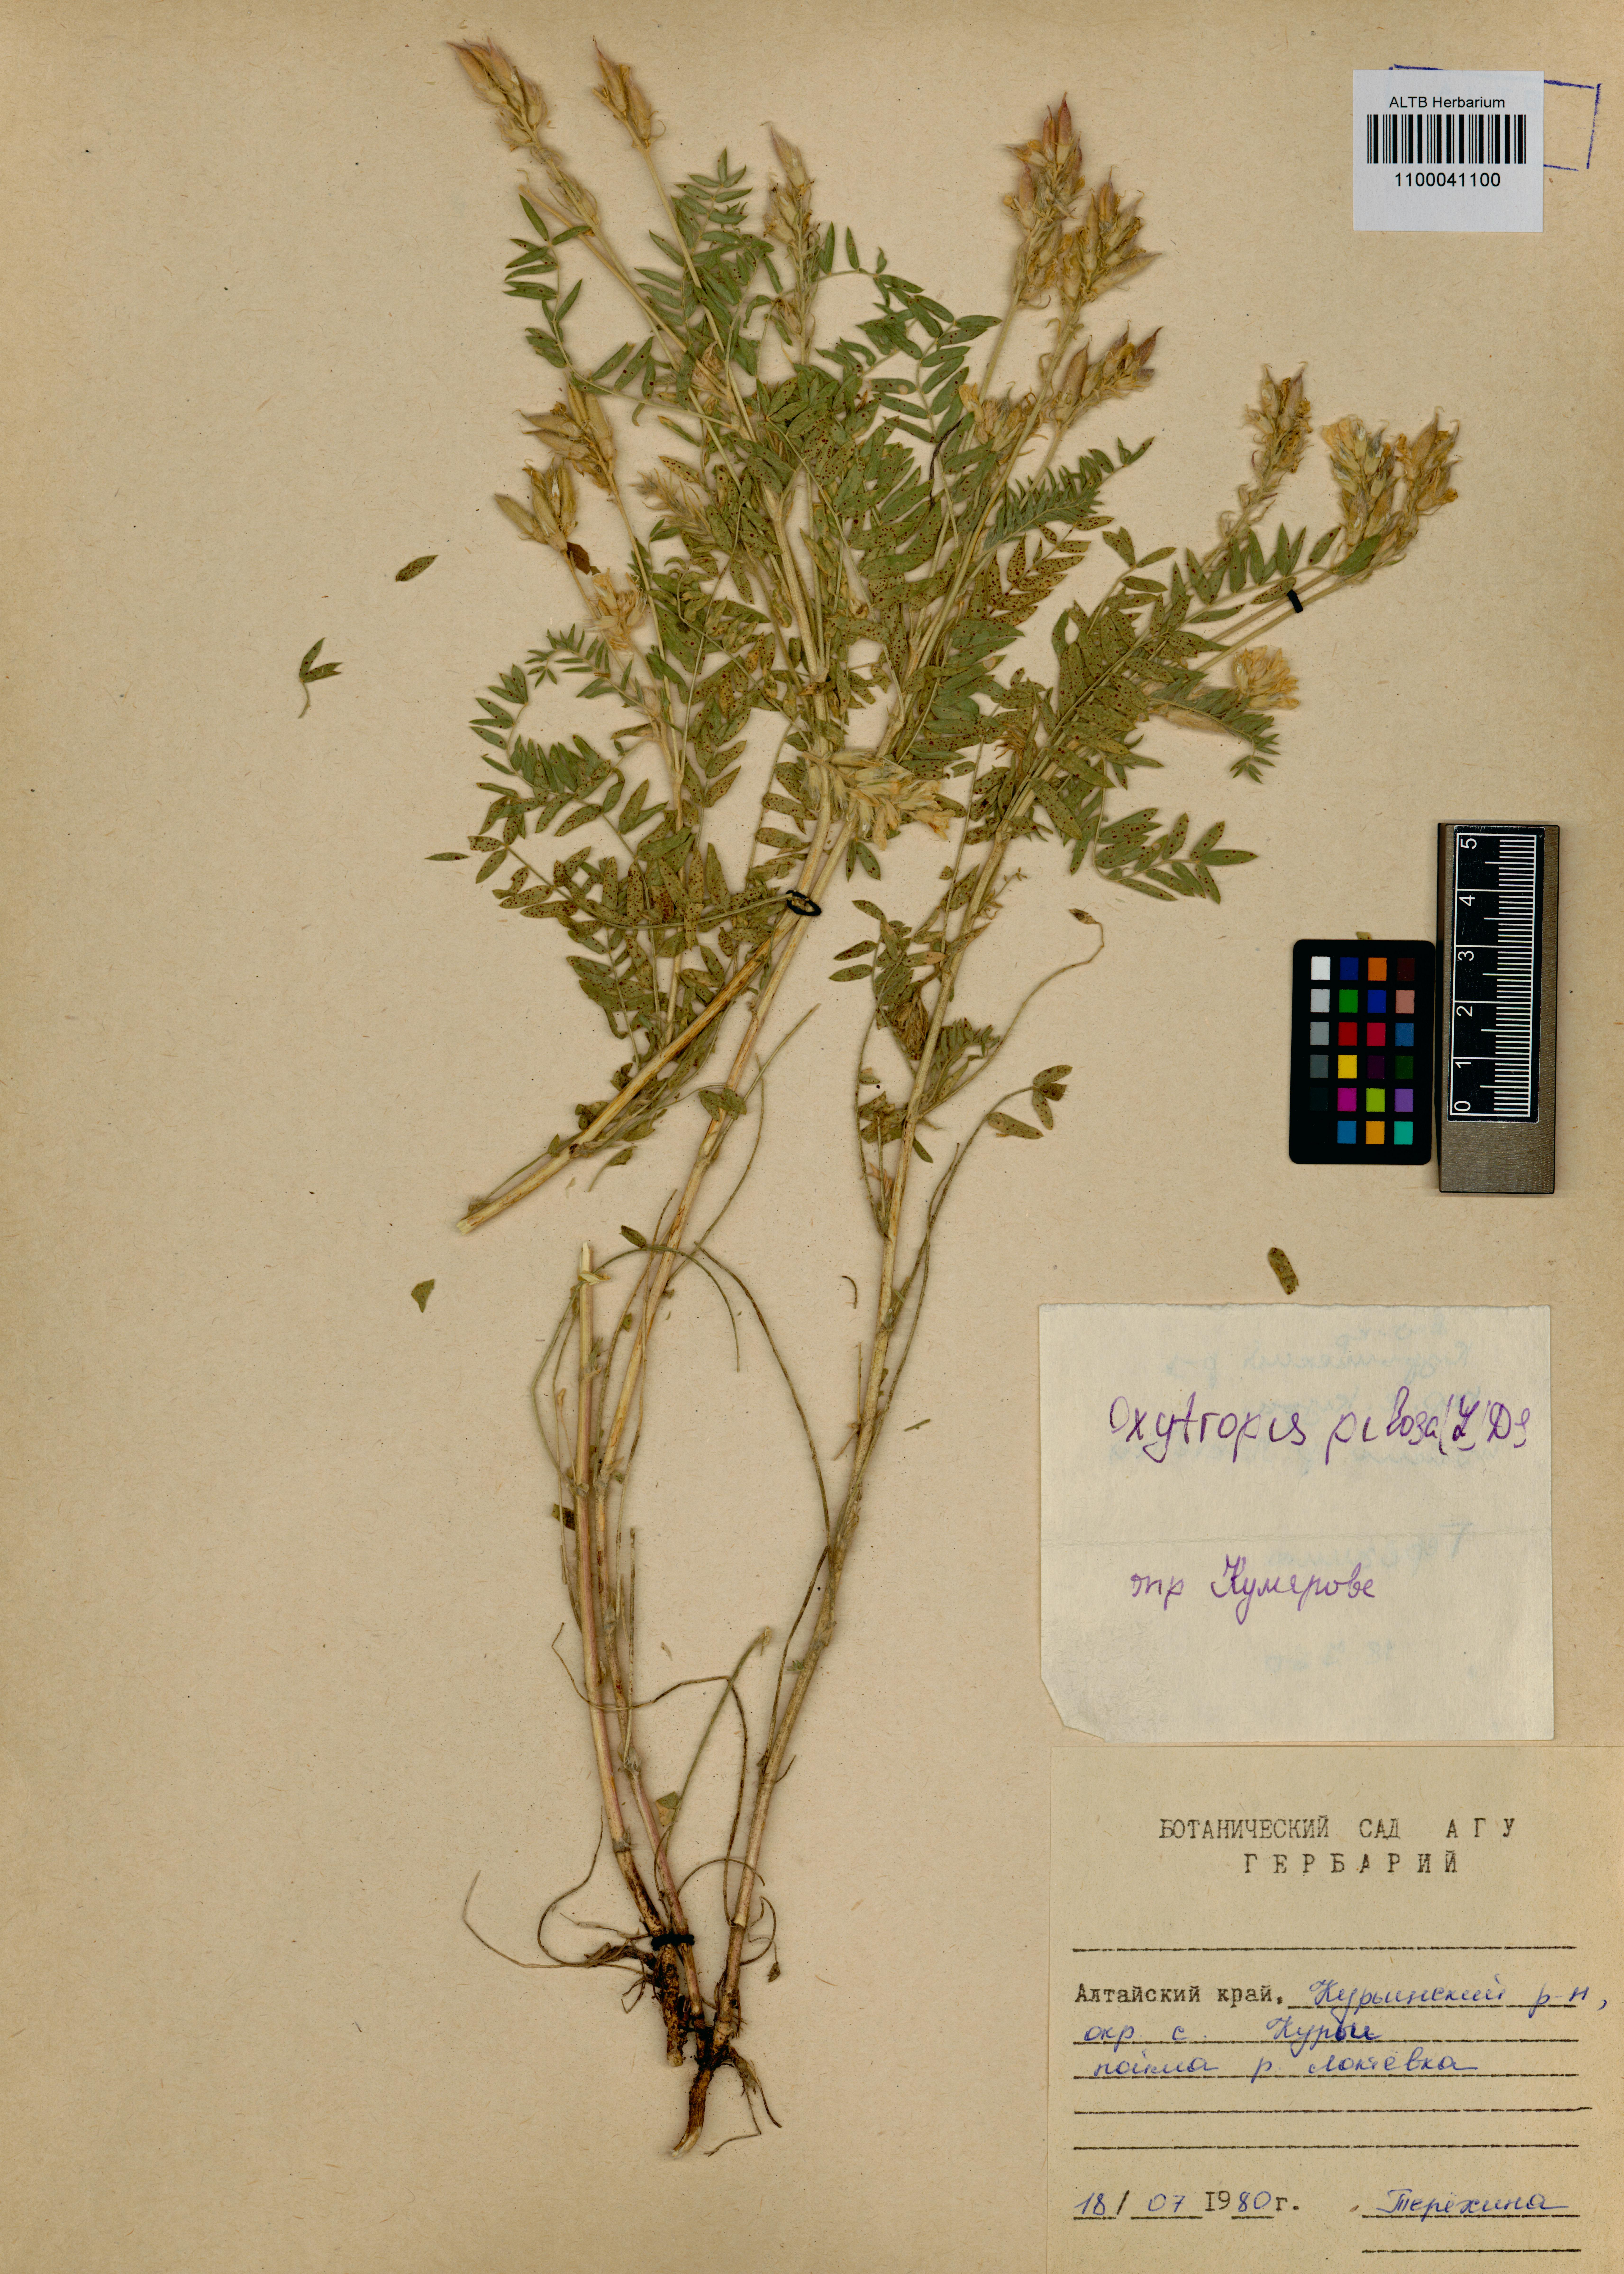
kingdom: Plantae
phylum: Tracheophyta
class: Magnoliopsida
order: Fabales
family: Fabaceae
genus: Oxytropis
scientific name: Oxytropis pilosa
